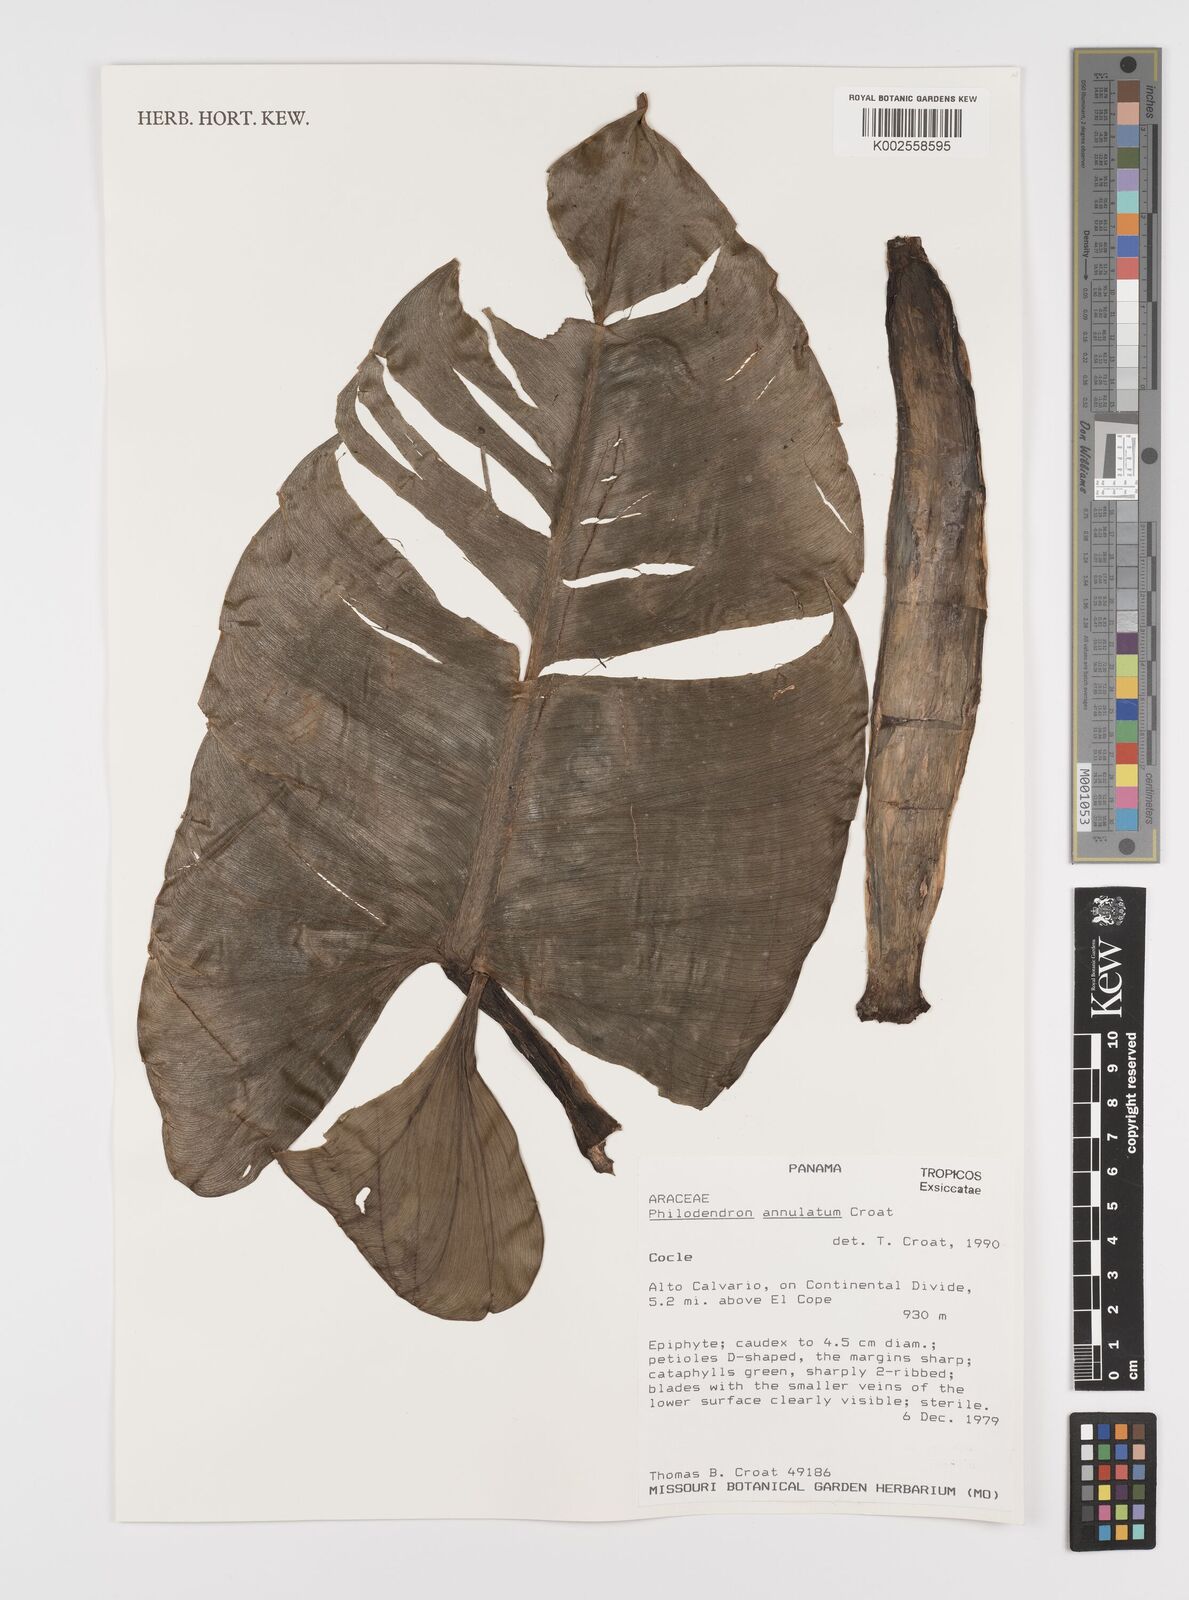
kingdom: Plantae
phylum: Tracheophyta
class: Liliopsida
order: Alismatales
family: Araceae
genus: Philodendron
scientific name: Philodendron annulatum
